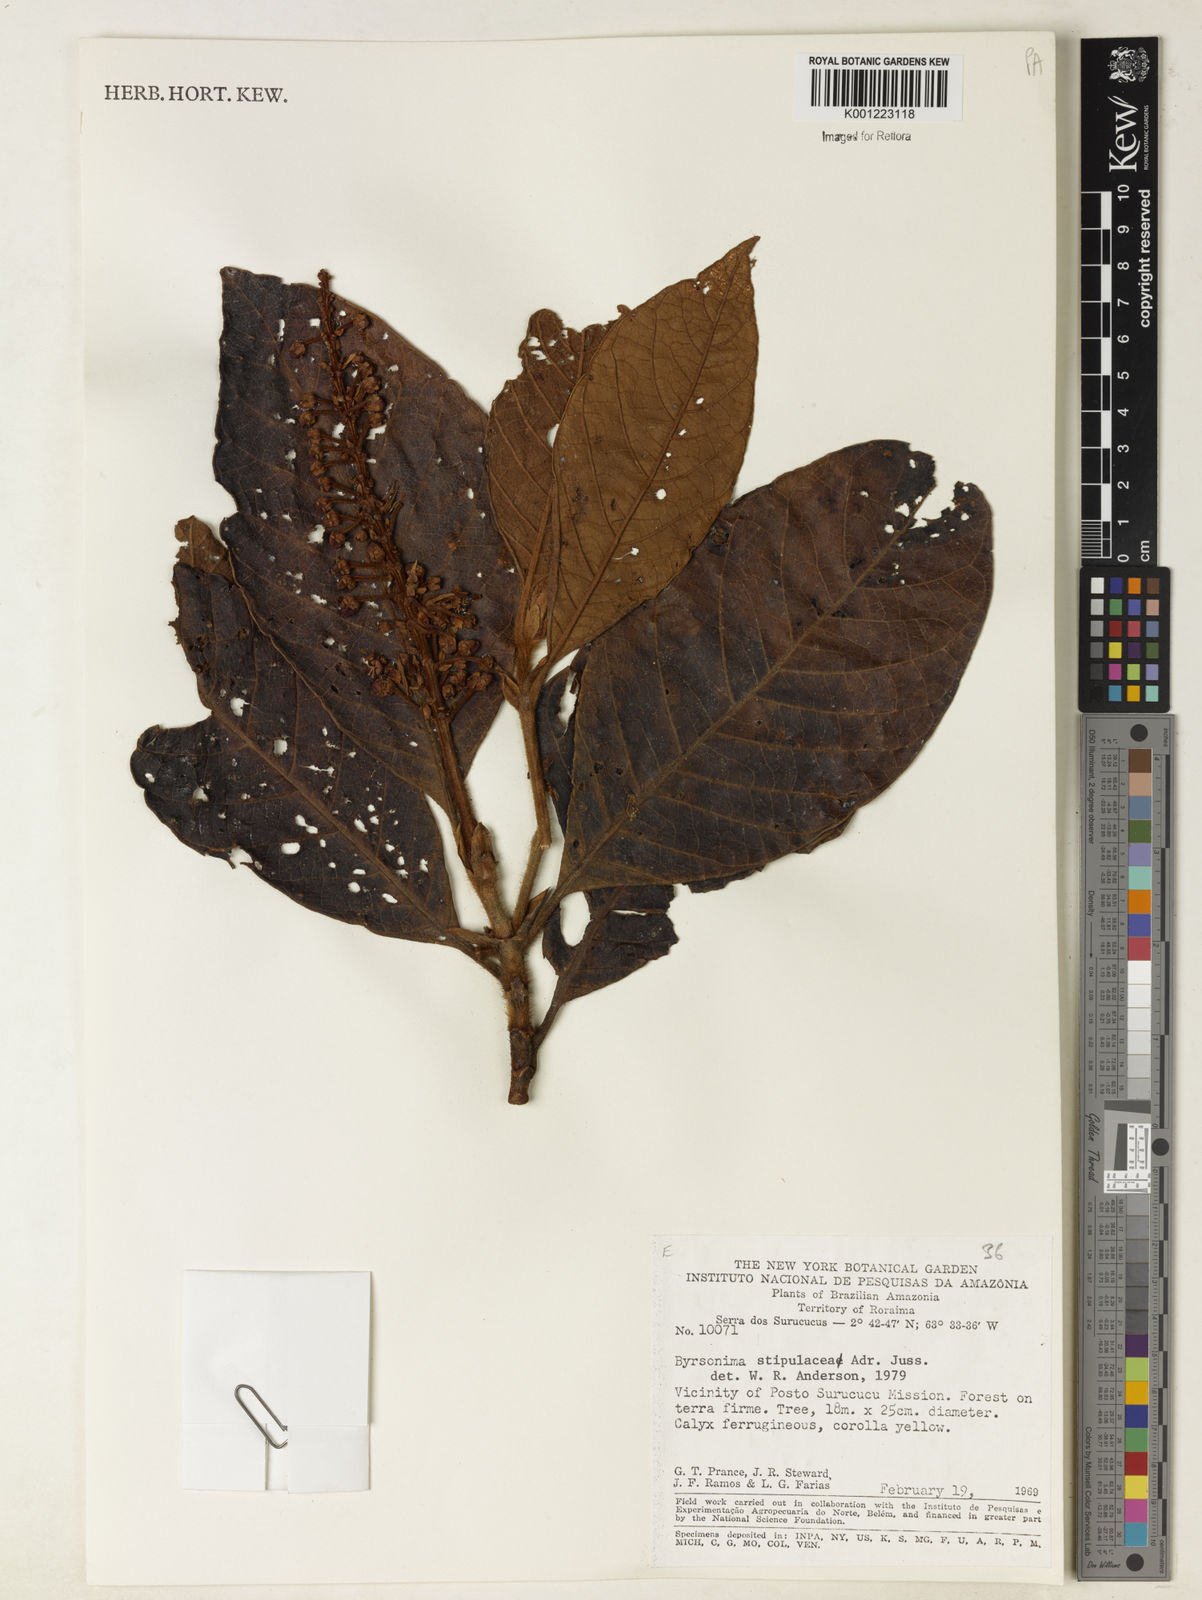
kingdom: Plantae
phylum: Tracheophyta
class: Magnoliopsida
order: Malpighiales
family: Malpighiaceae
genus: Byrsonima
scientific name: Byrsonima stipulacea
